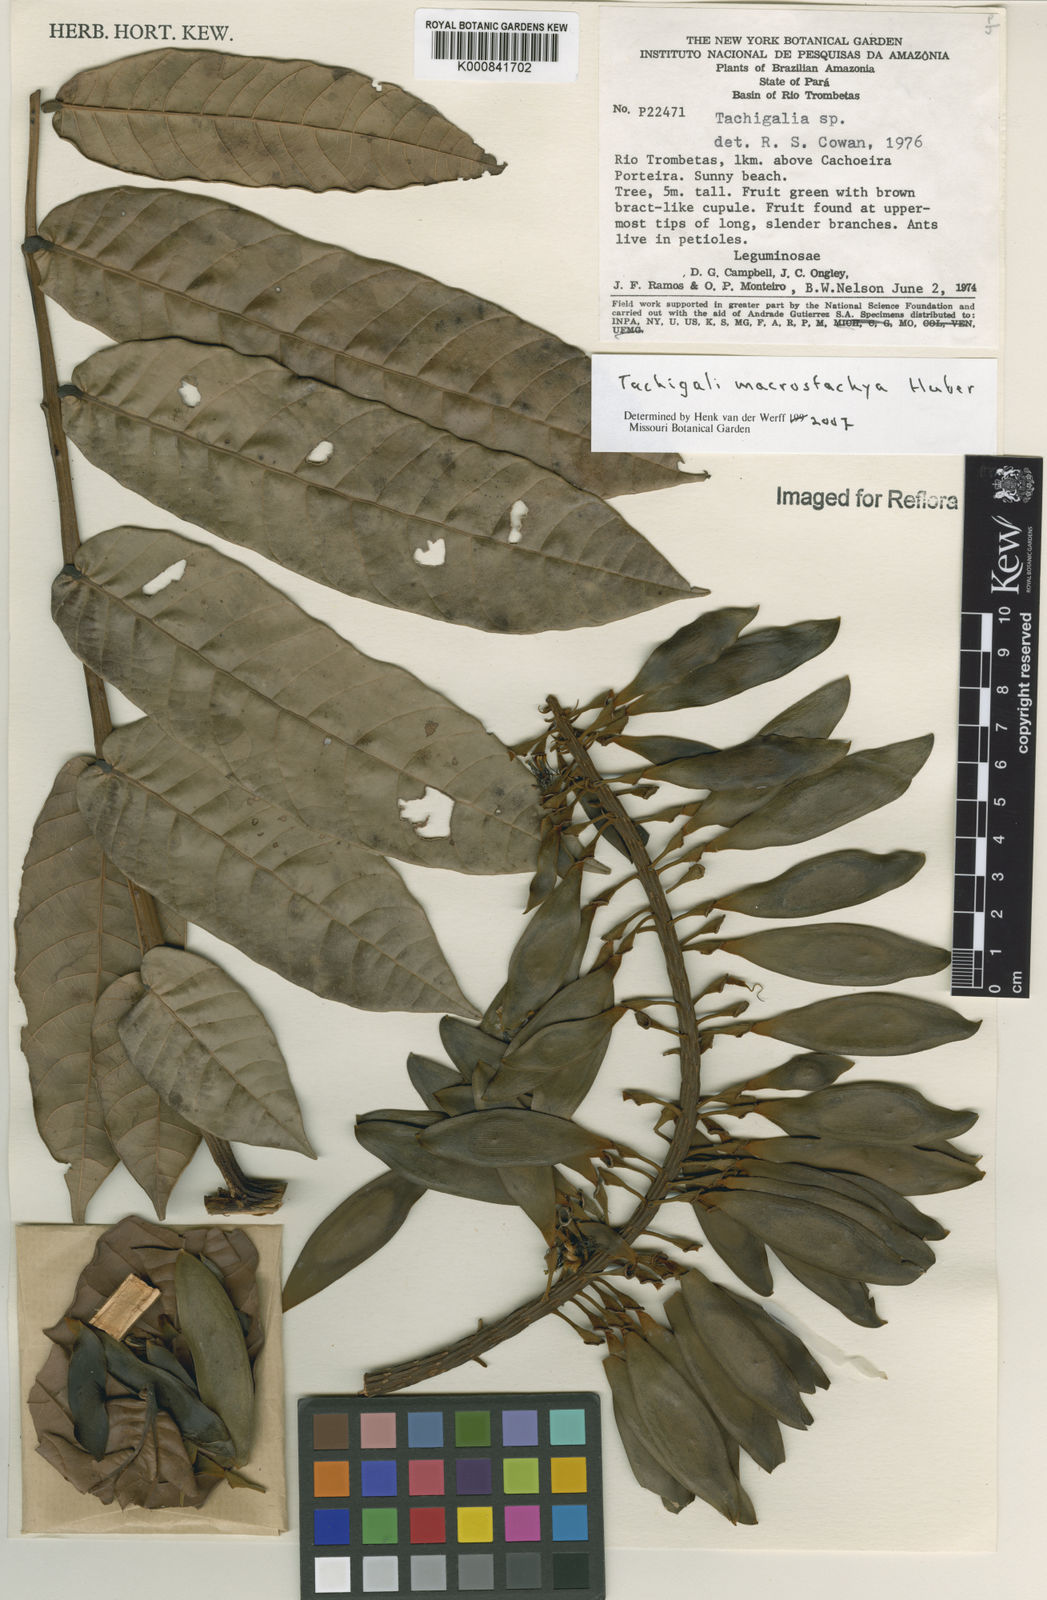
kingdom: Plantae
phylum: Tracheophyta
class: Magnoliopsida
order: Fabales
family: Fabaceae
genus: Tachigali
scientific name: Tachigali macrostachya
